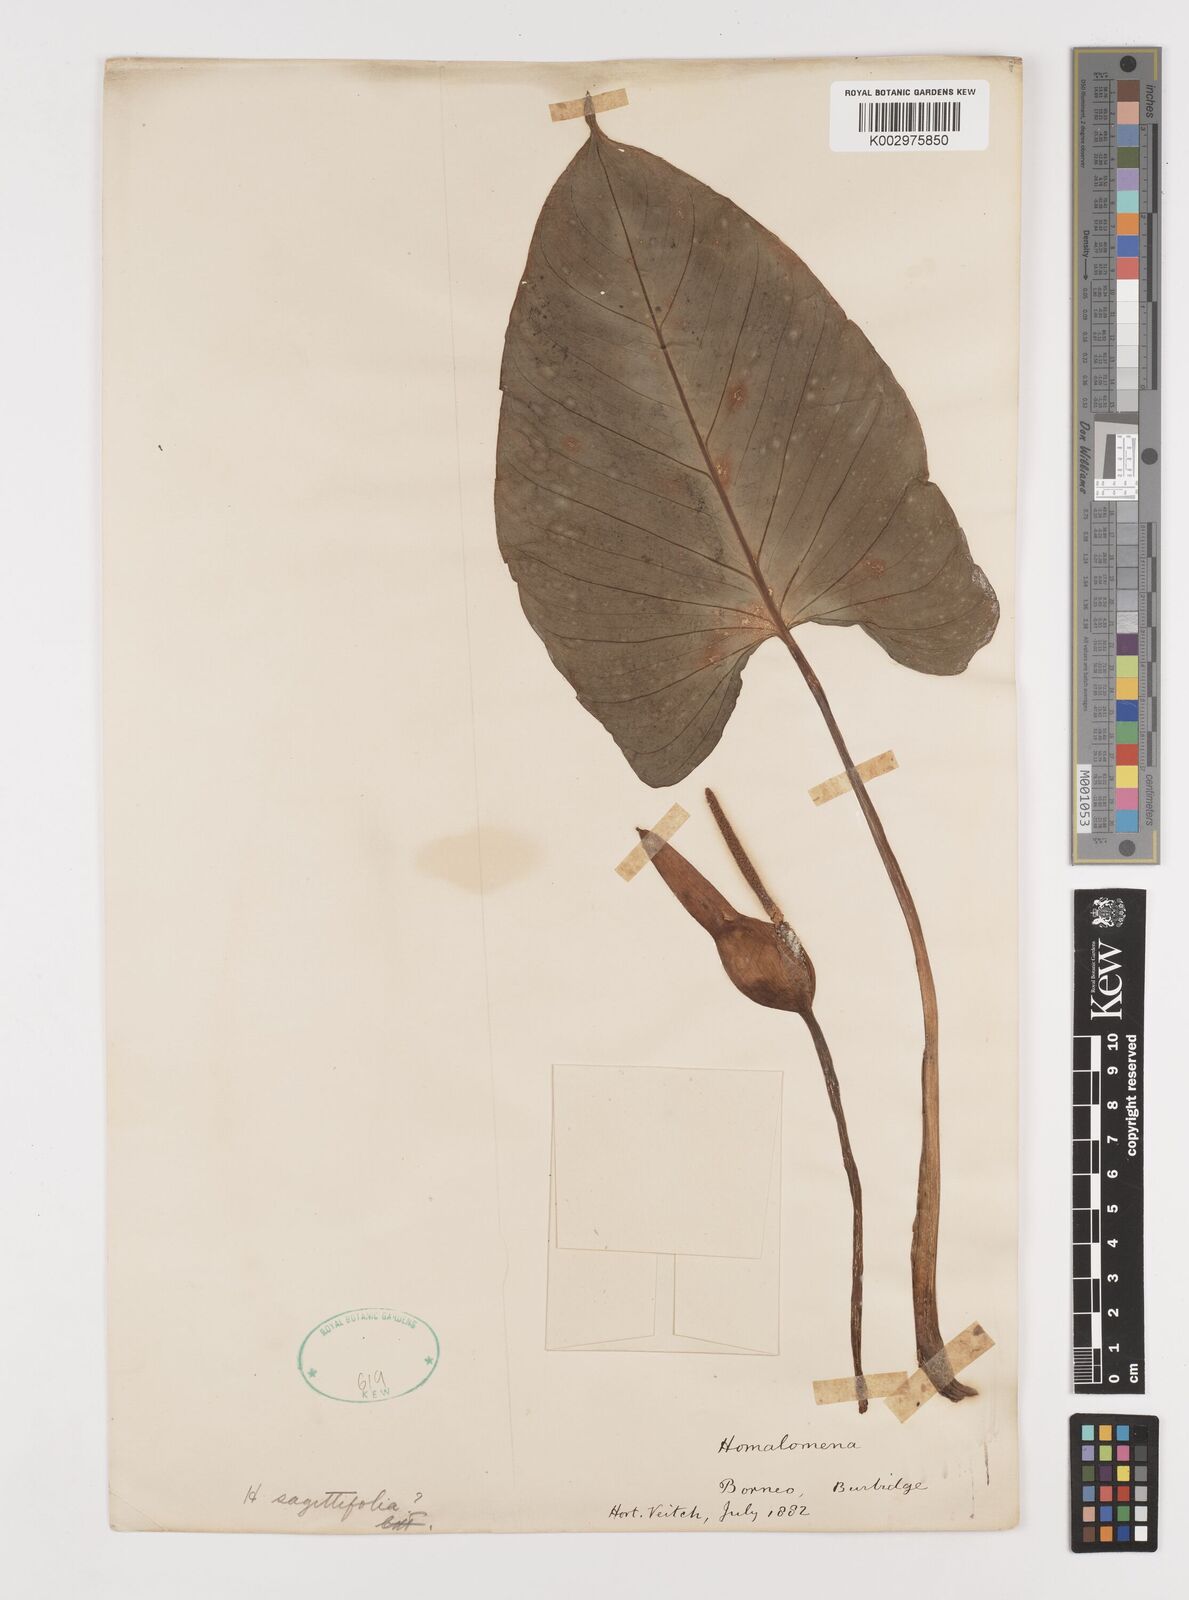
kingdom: Plantae
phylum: Tracheophyta
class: Liliopsida
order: Alismatales
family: Araceae
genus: Homalomena
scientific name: Homalomena
